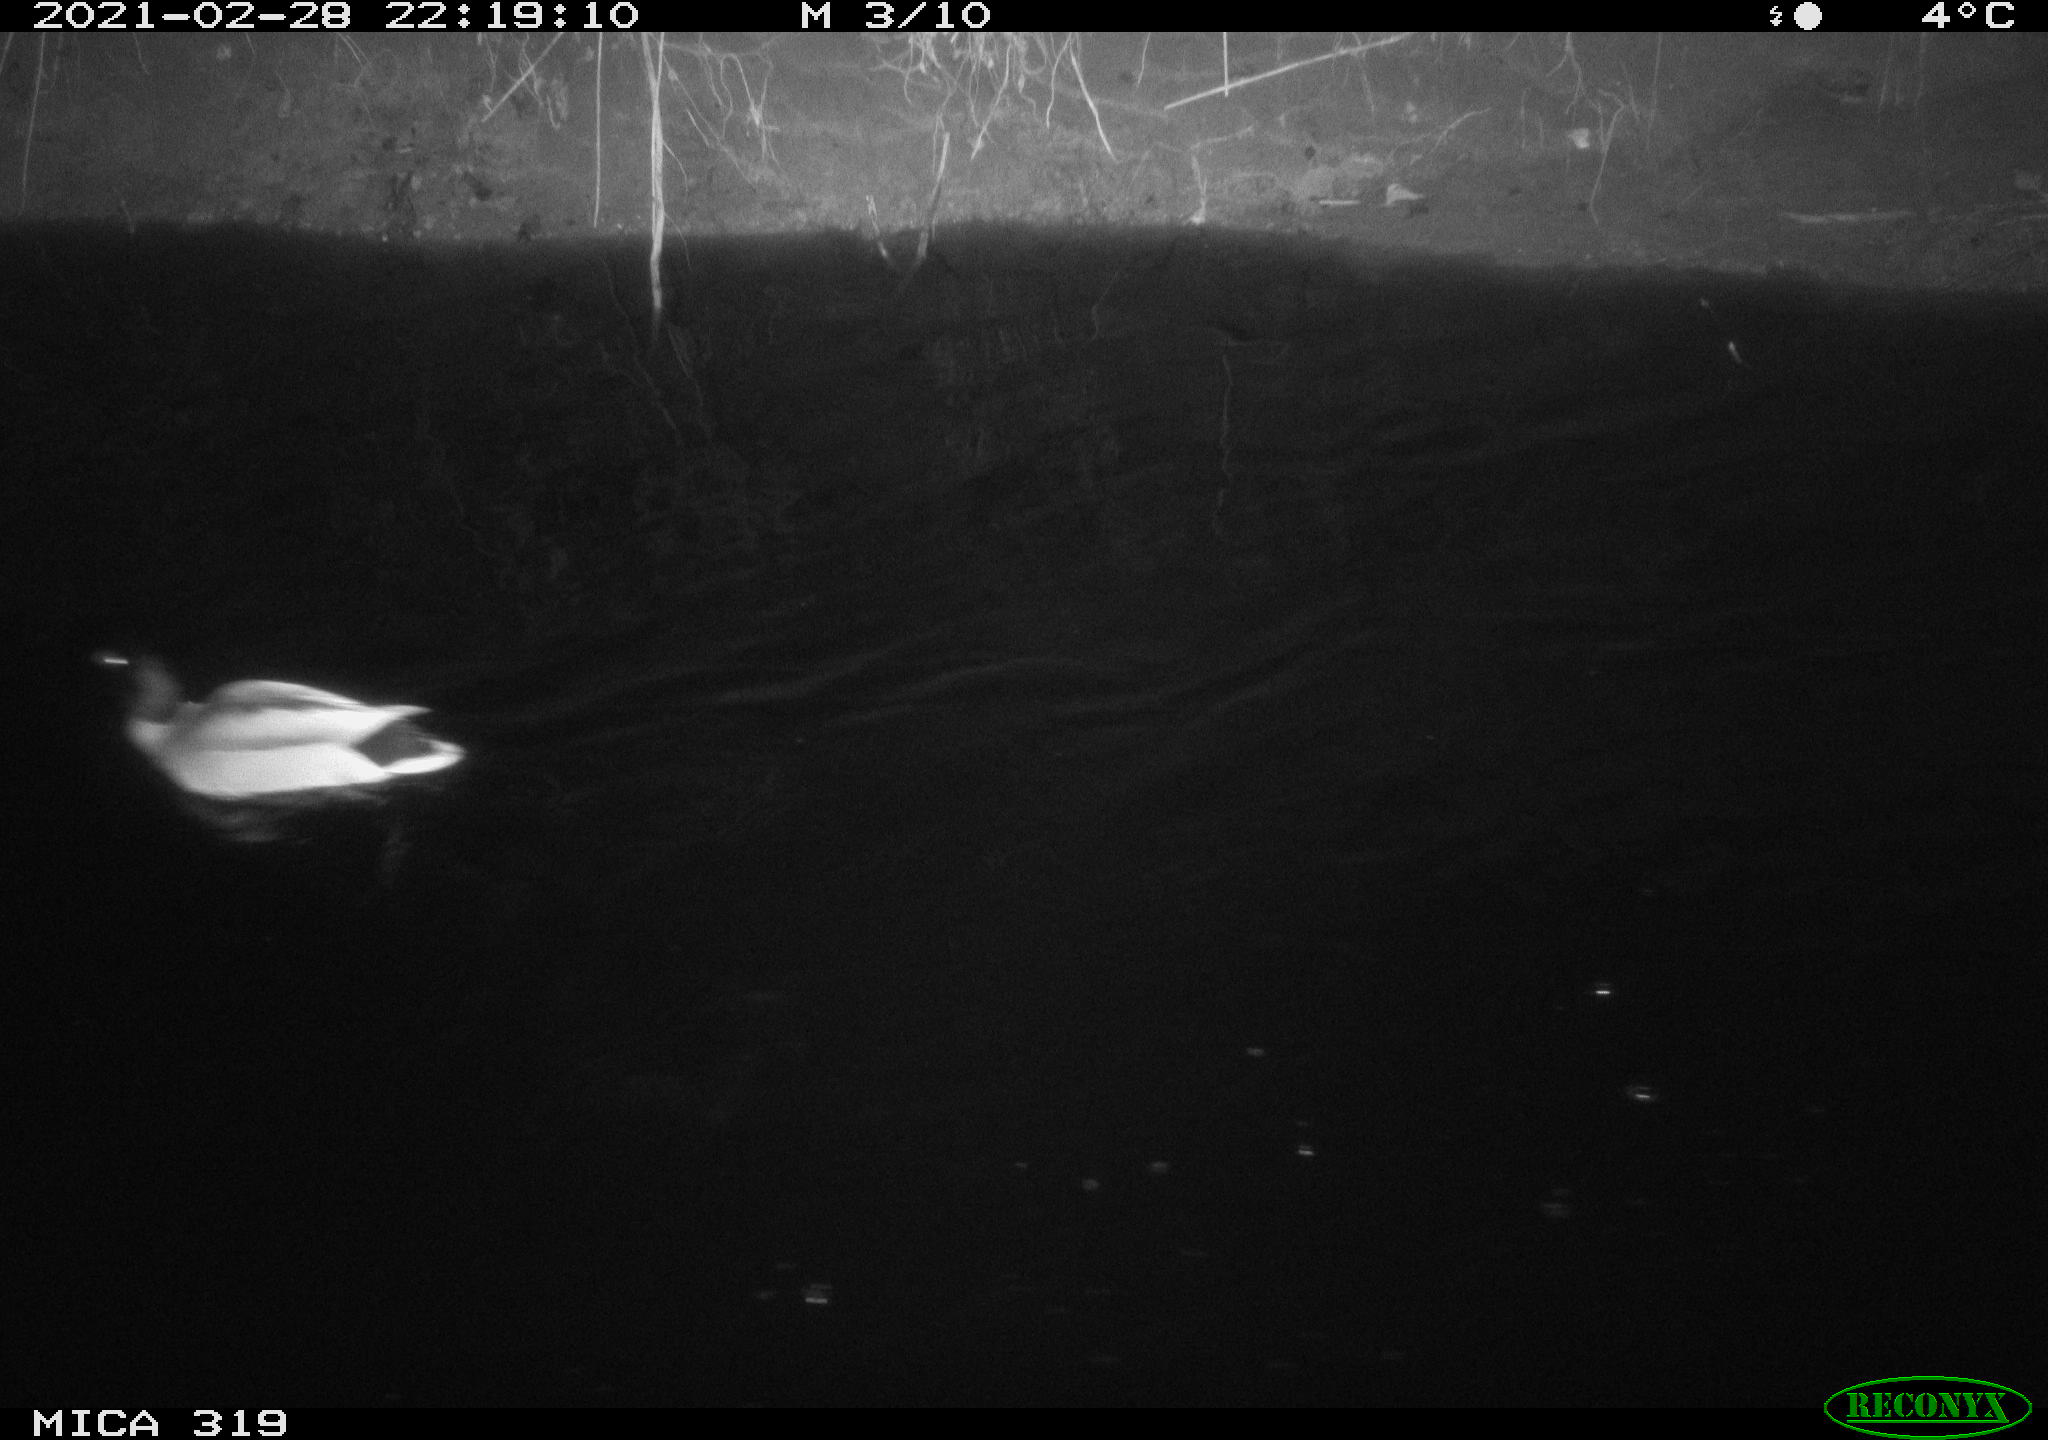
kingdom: Animalia
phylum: Chordata
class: Aves
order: Anseriformes
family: Anatidae
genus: Anas
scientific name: Anas platyrhynchos
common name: Mallard
